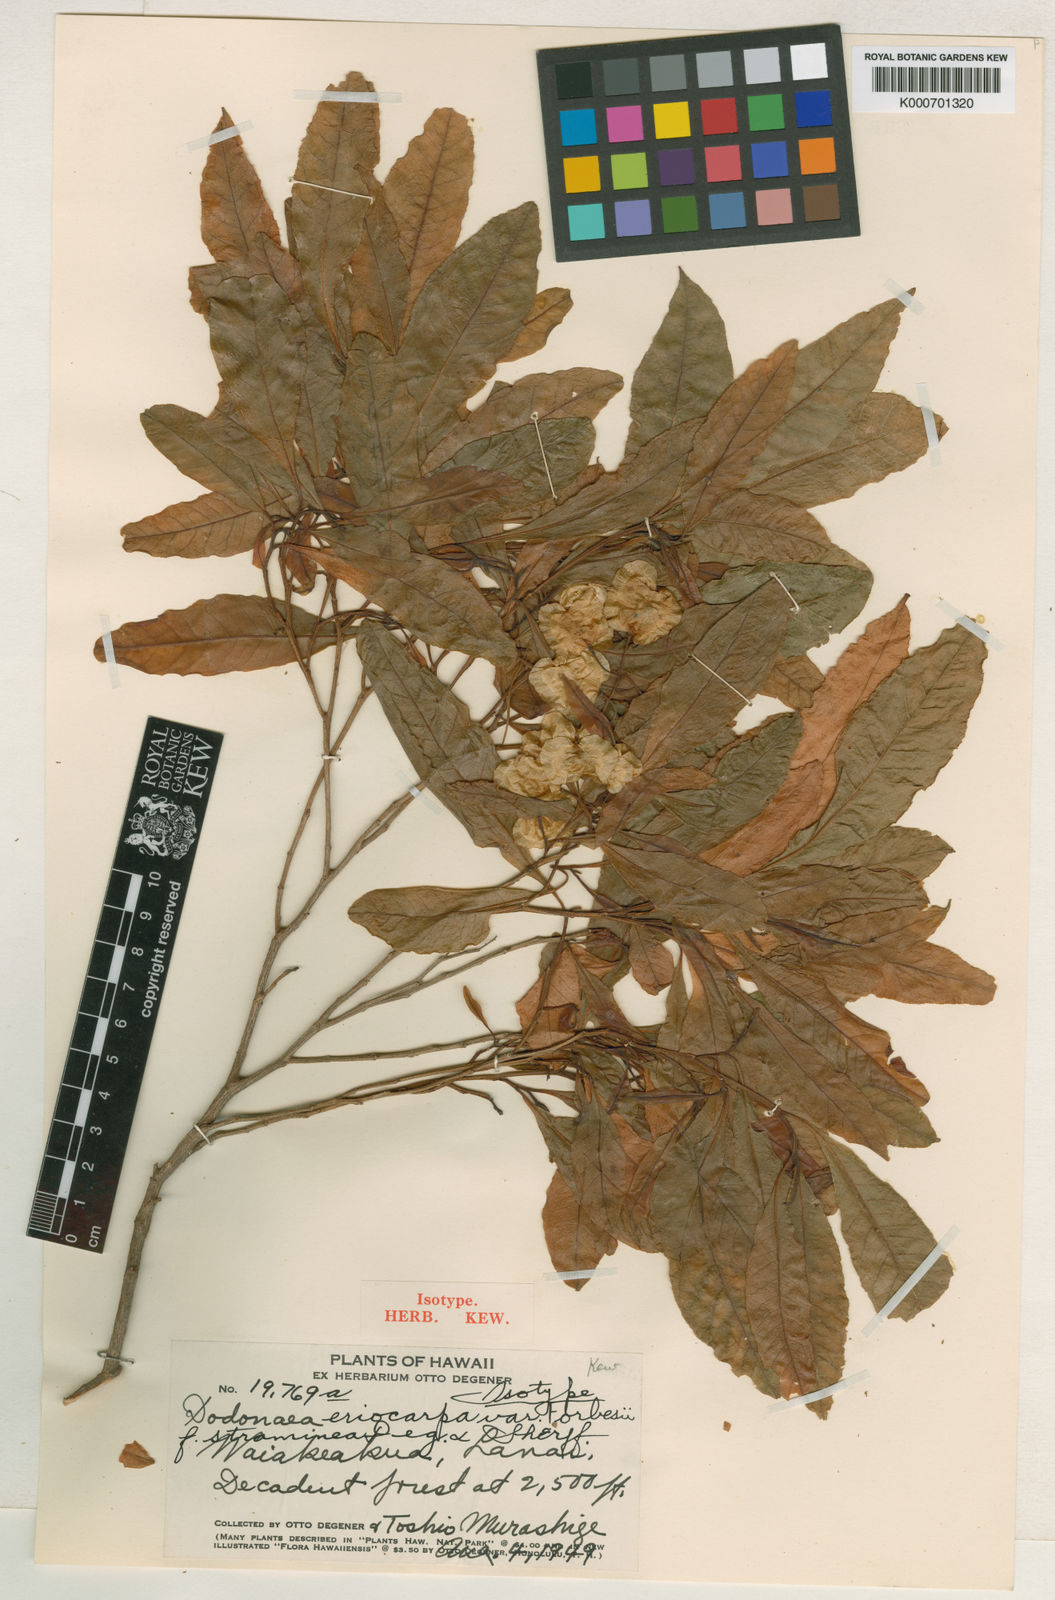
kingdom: Plantae
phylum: Tracheophyta
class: Magnoliopsida
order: Sapindales
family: Sapindaceae
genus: Dodonaea
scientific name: Dodonaea viscosa
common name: Hopbush
